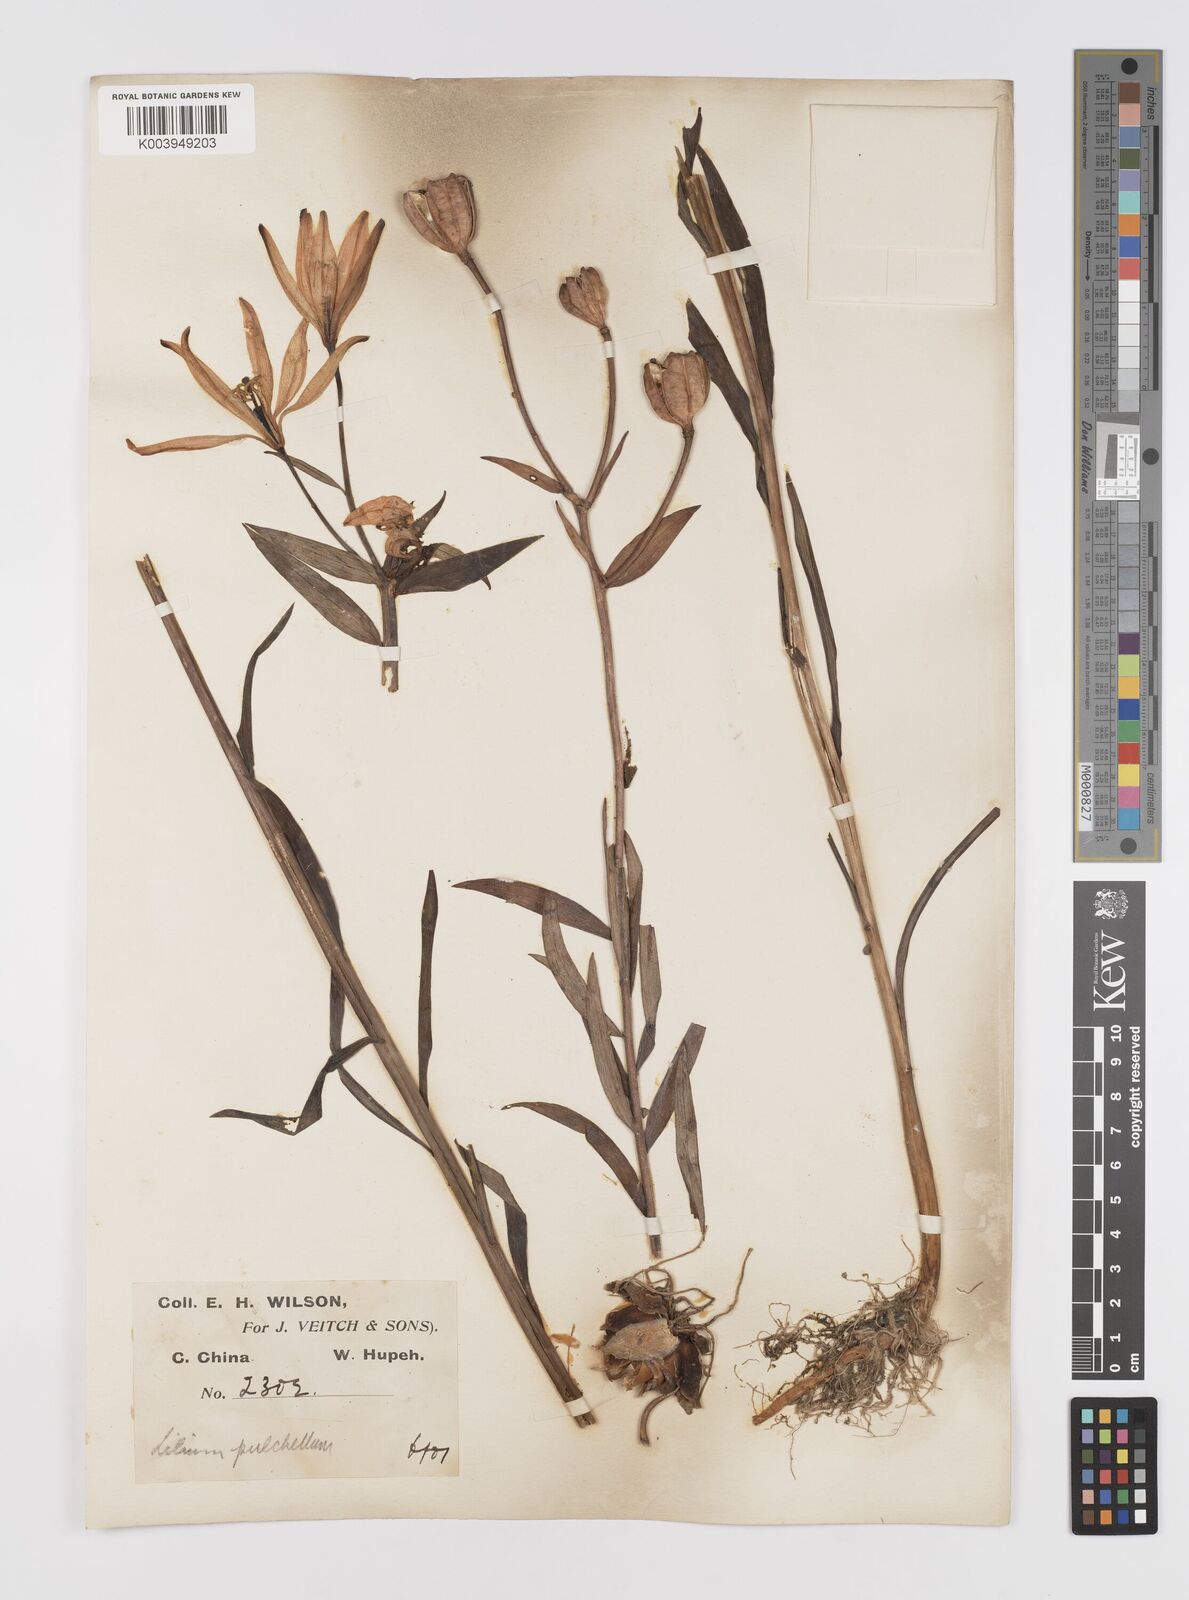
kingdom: Plantae
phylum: Tracheophyta
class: Liliopsida
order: Liliales
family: Liliaceae
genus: Lilium
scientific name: Lilium concolor
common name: Morning-star lily
